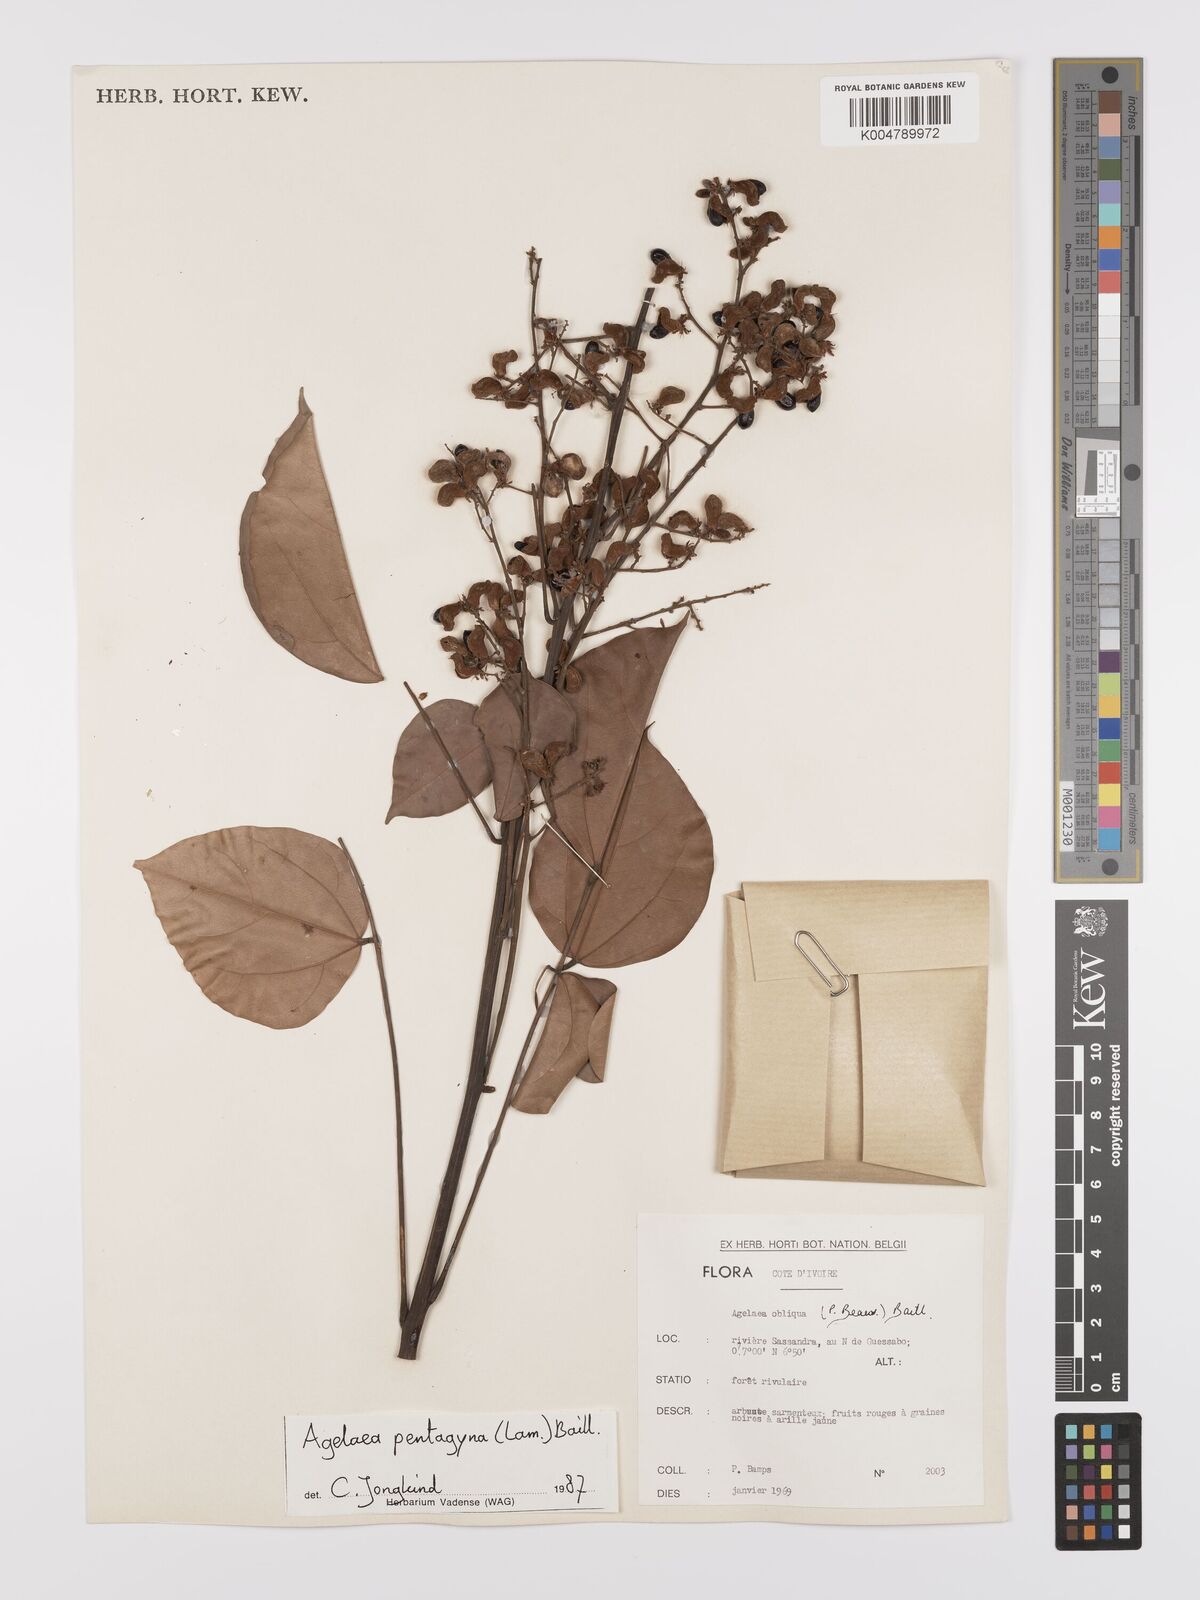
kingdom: Plantae
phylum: Tracheophyta
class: Magnoliopsida
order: Oxalidales
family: Connaraceae
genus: Agelaea
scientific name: Agelaea pentagyna
